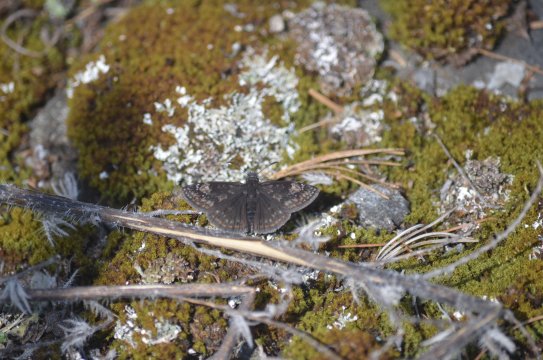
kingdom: Animalia
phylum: Arthropoda
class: Insecta
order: Lepidoptera
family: Hesperiidae
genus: Gesta
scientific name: Gesta
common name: Columbine Duskywing
